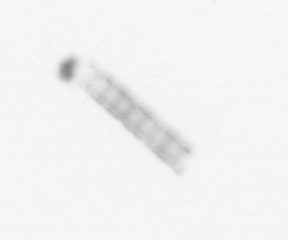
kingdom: Chromista
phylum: Ochrophyta
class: Bacillariophyceae
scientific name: Bacillariophyceae
